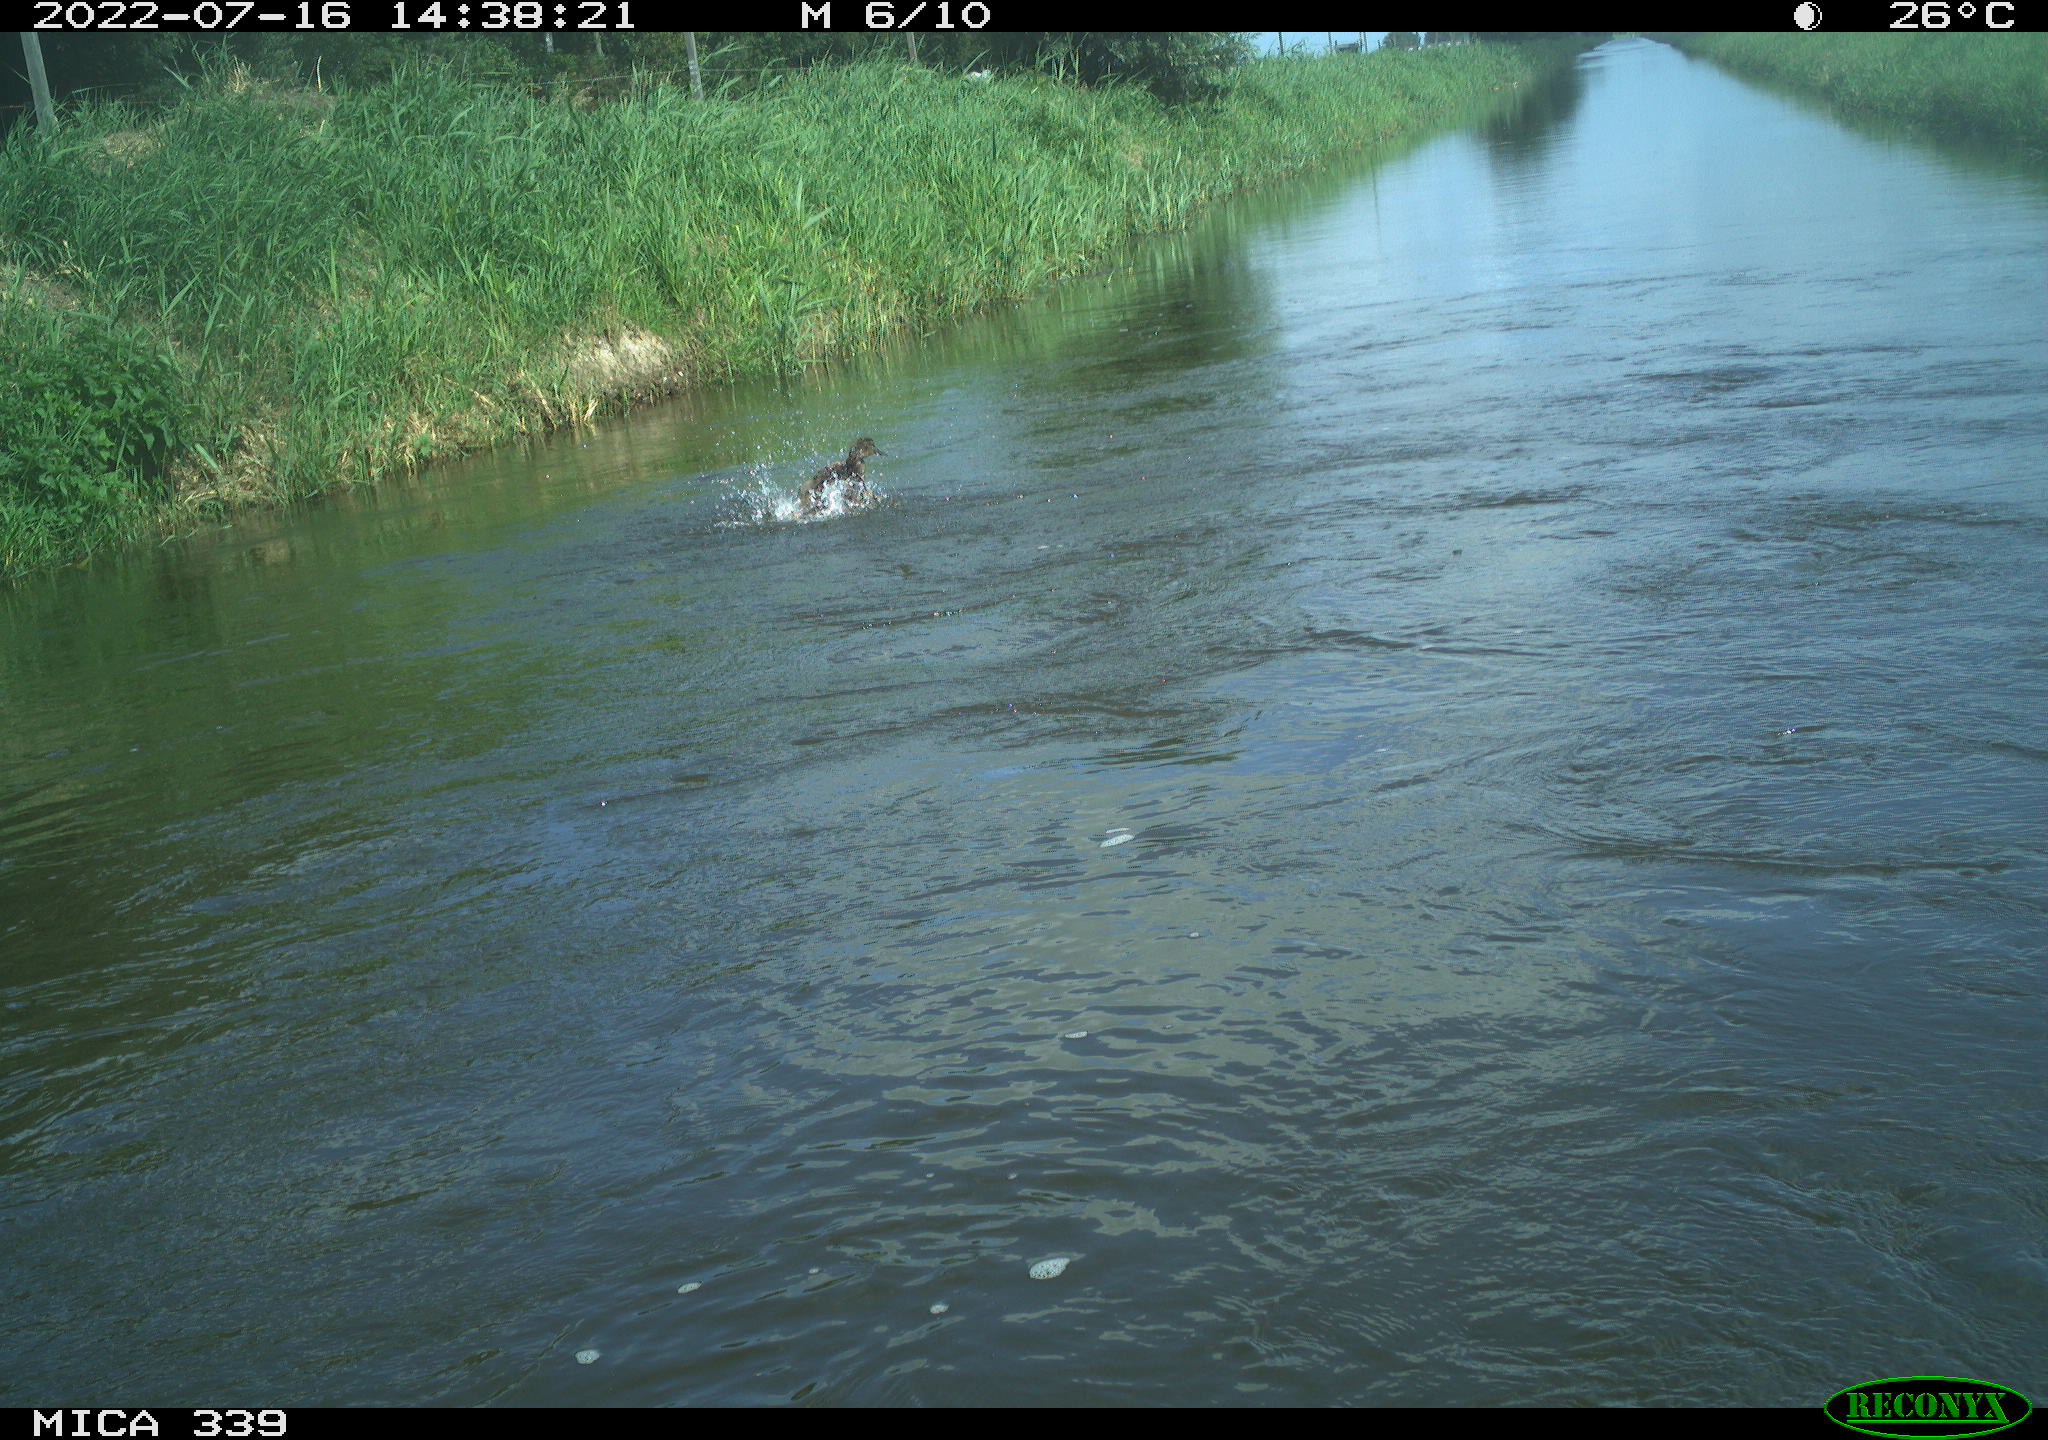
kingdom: Animalia
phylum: Chordata
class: Aves
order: Anseriformes
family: Anatidae
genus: Anas
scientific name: Anas platyrhynchos
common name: Mallard
